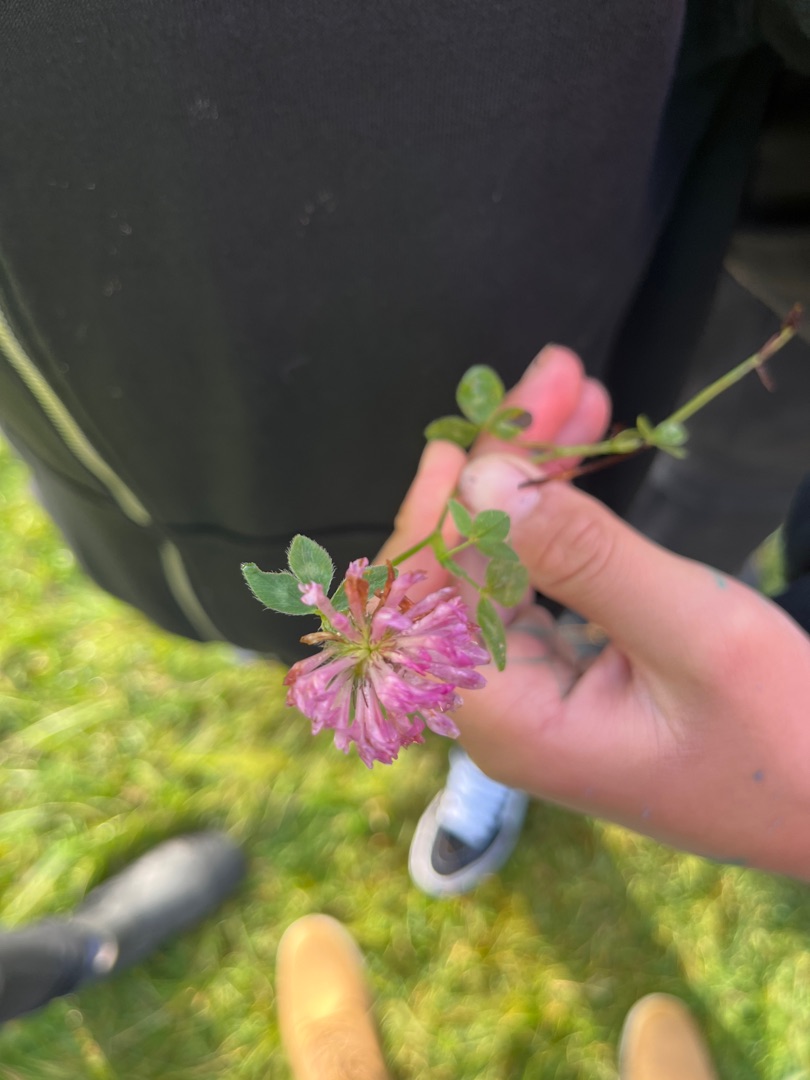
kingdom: Plantae
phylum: Tracheophyta
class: Magnoliopsida
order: Fabales
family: Fabaceae
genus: Trifolium
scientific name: Trifolium pratense
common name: Rød-kløver
